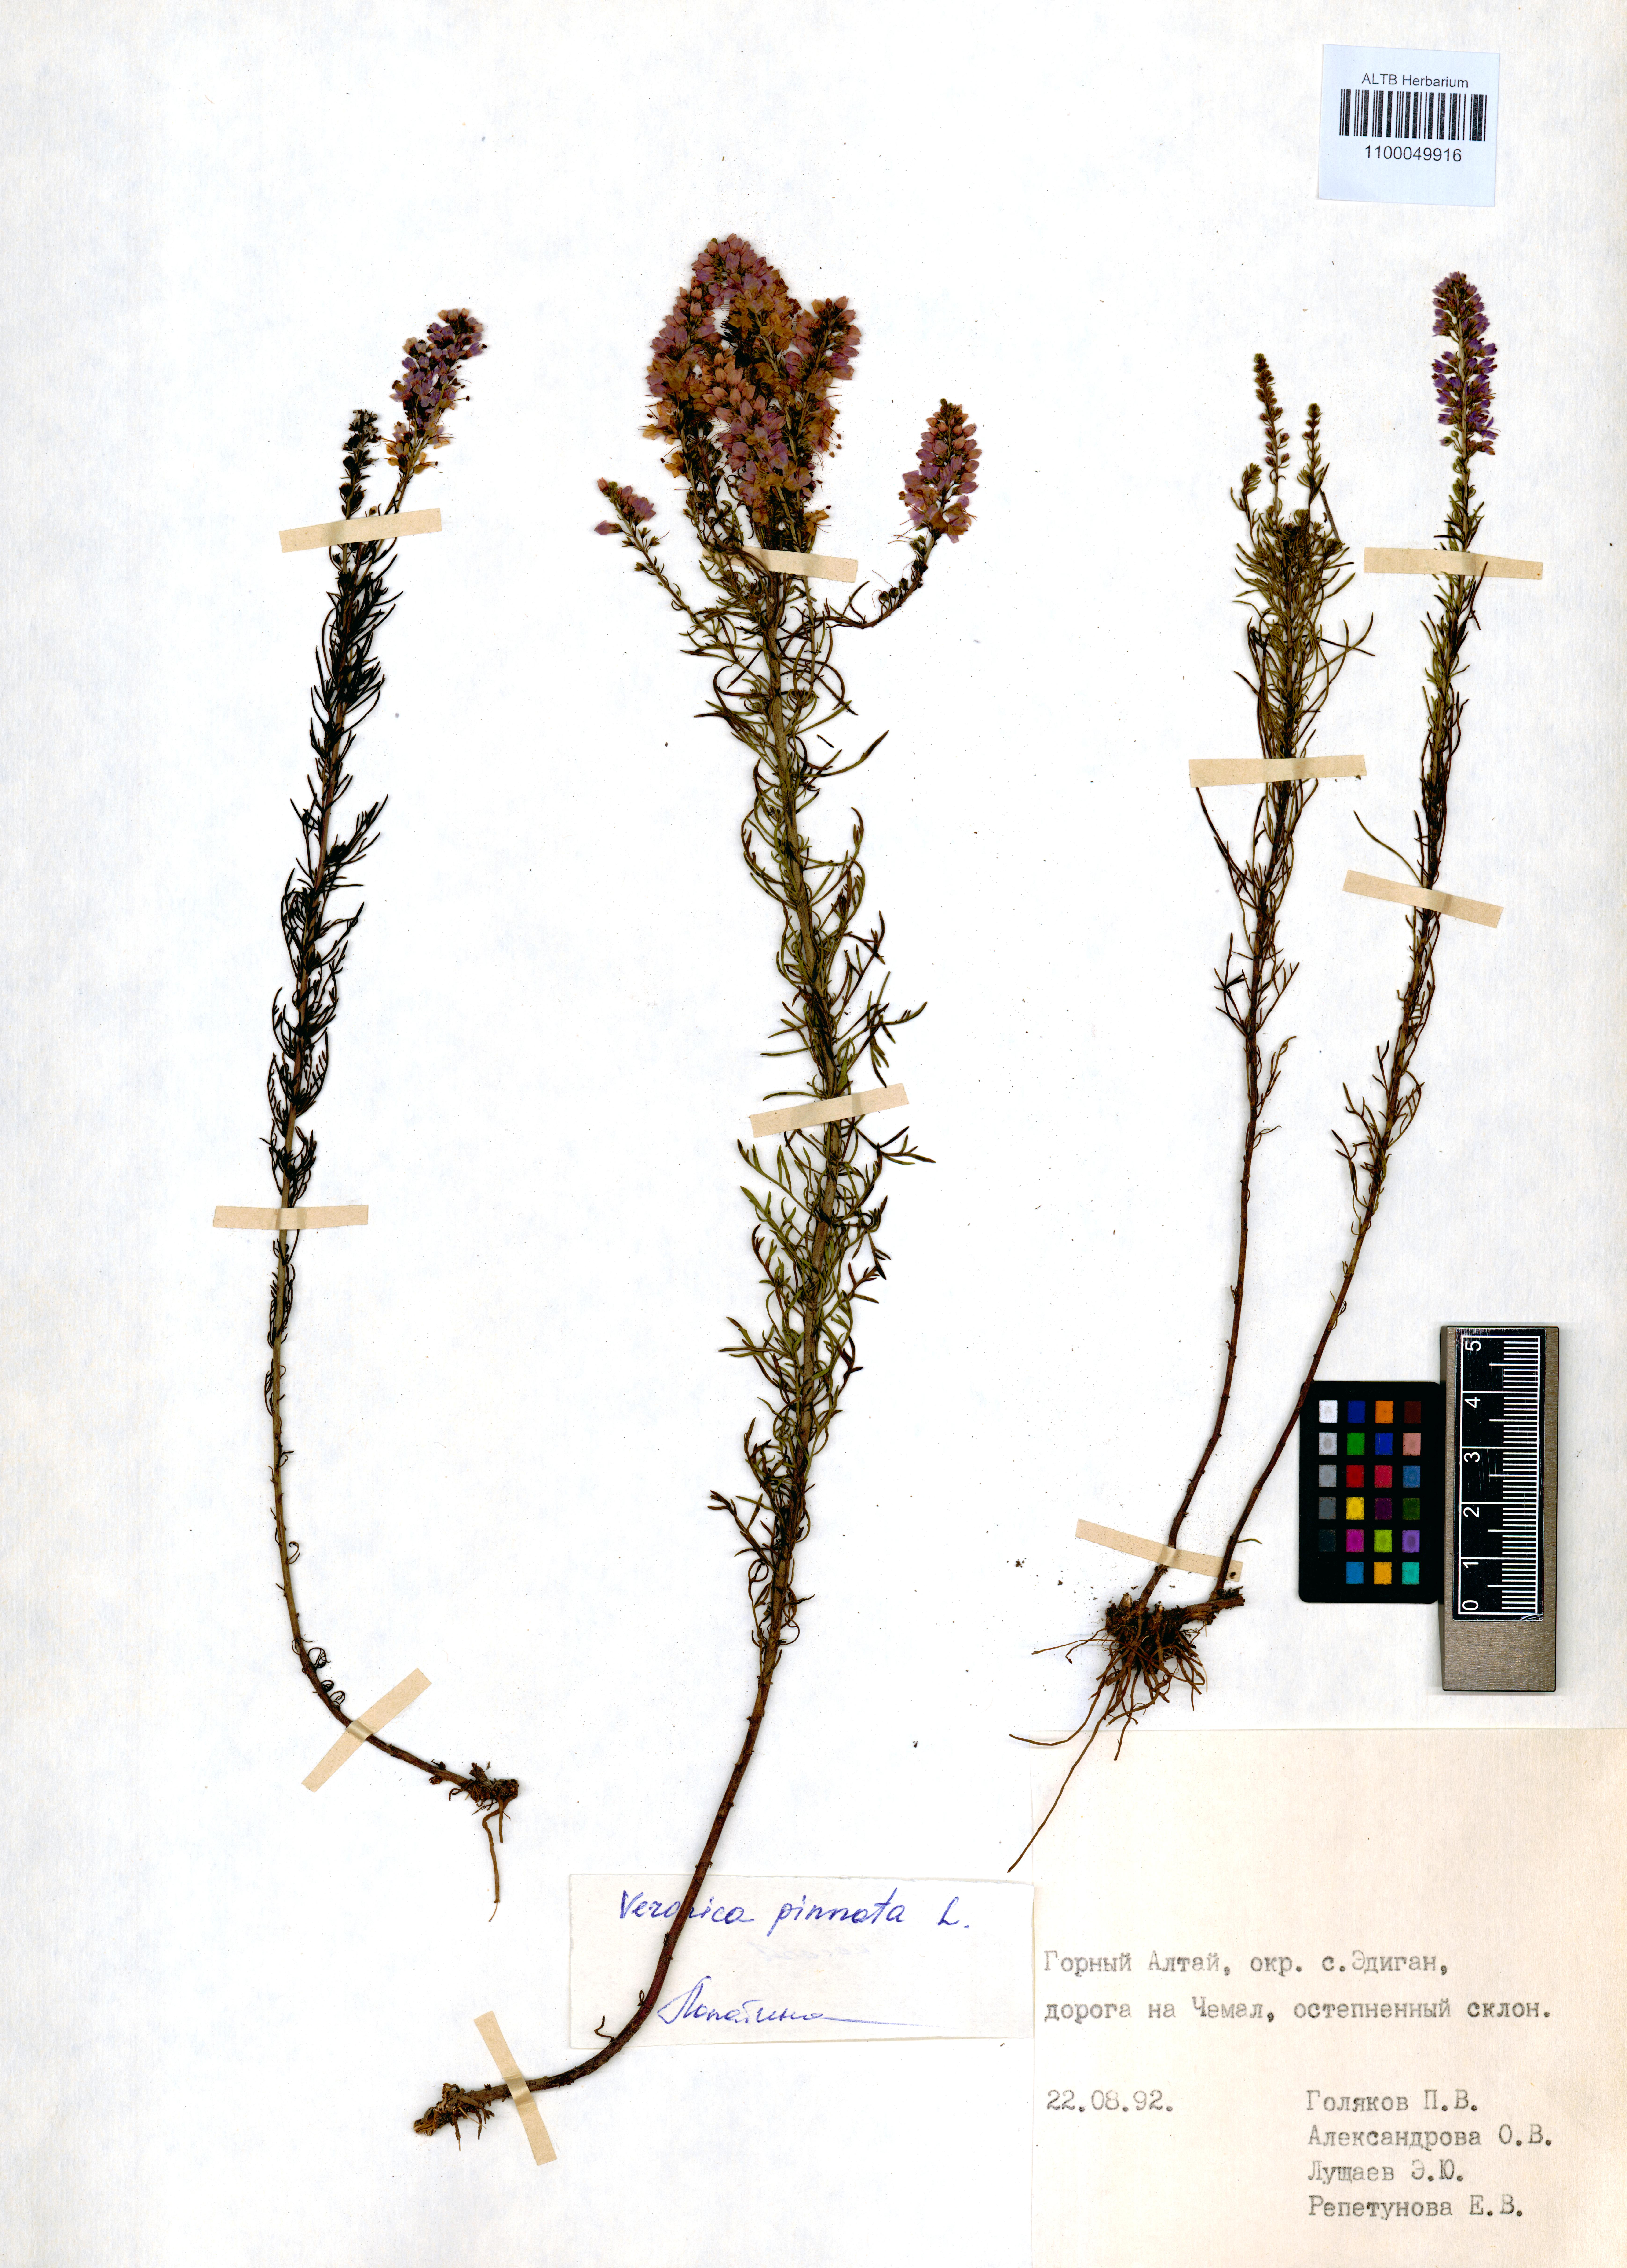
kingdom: Plantae
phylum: Tracheophyta
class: Magnoliopsida
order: Lamiales
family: Plantaginaceae
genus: Veronica
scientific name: Veronica pinnata
